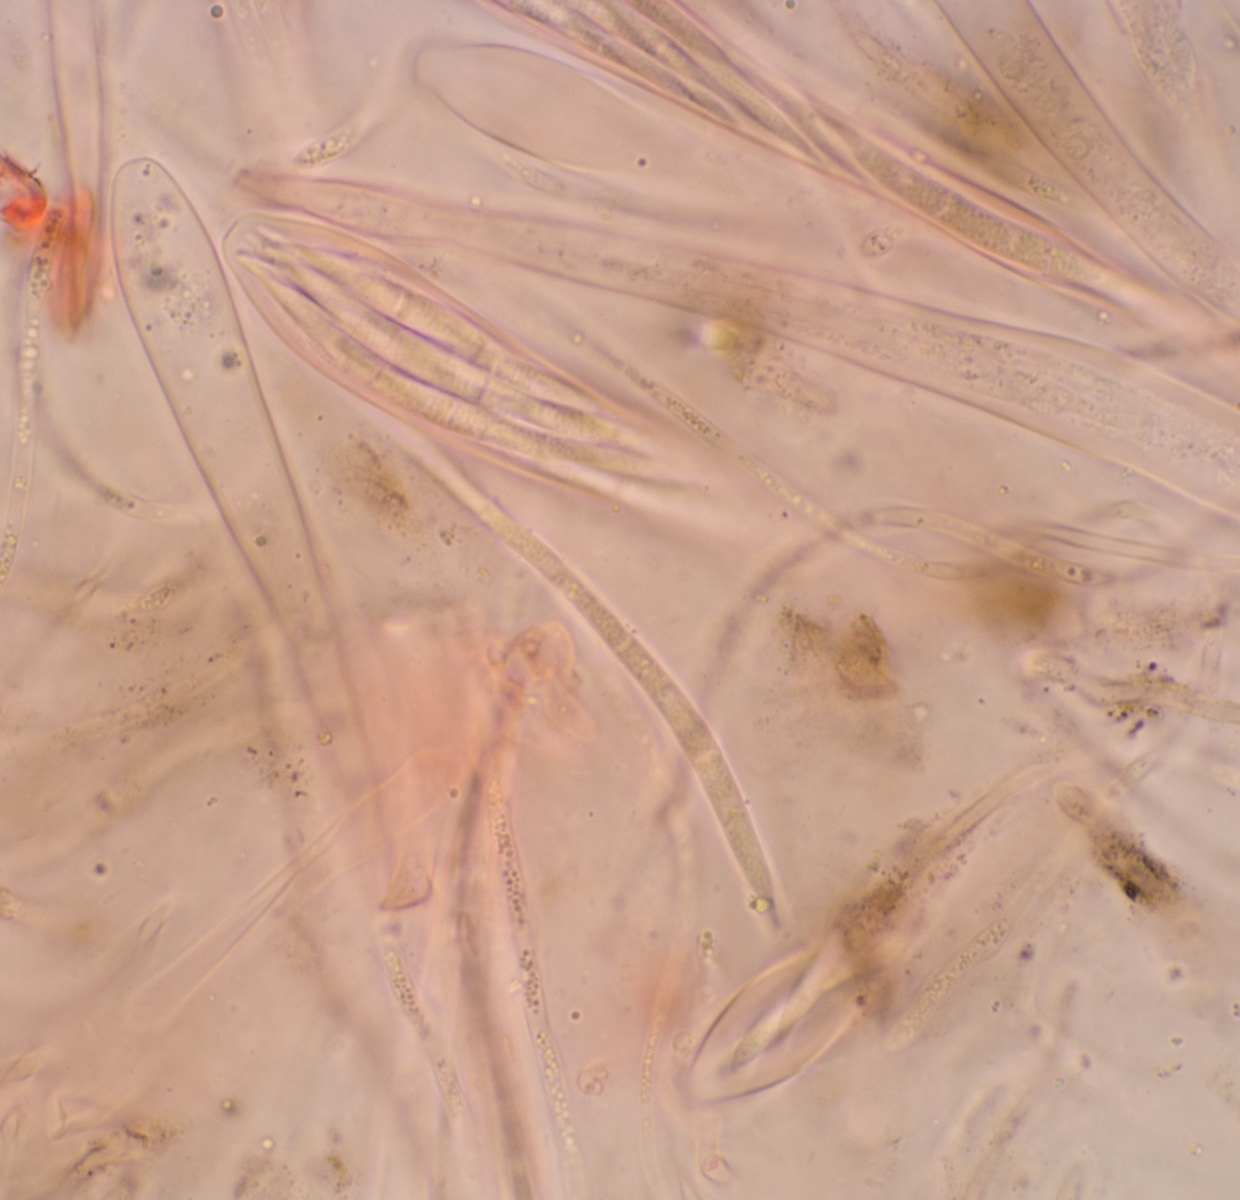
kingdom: Fungi
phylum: Ascomycota
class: Leotiomycetes
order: Rhytismatales
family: Rhytismataceae
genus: Therrya
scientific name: Therrya pini
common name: fyrre-tandskive
